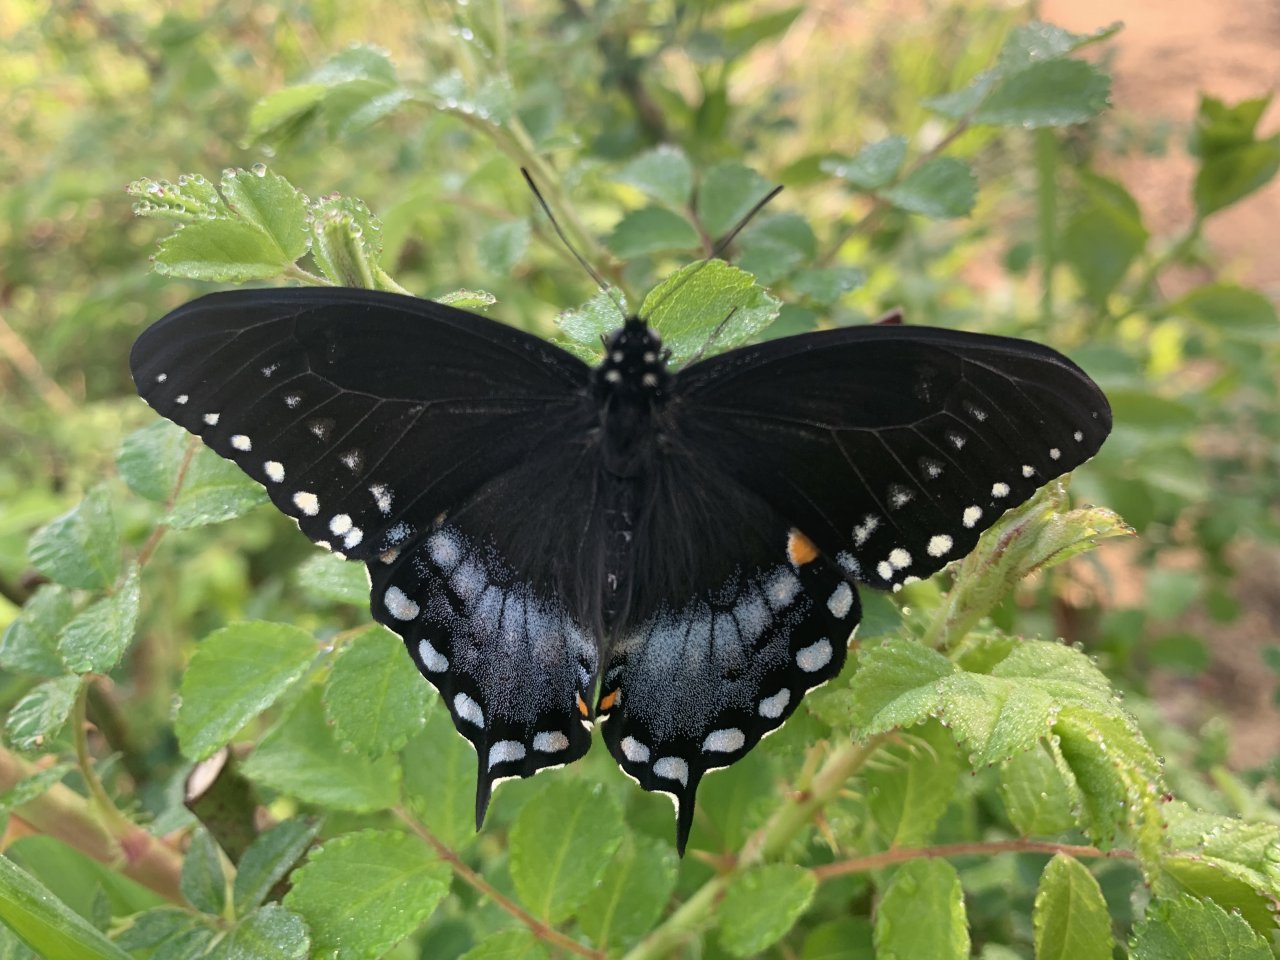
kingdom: Animalia
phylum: Arthropoda
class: Insecta
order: Lepidoptera
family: Papilionidae
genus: Pterourus
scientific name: Pterourus troilus
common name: Spicebush Swallowtail
